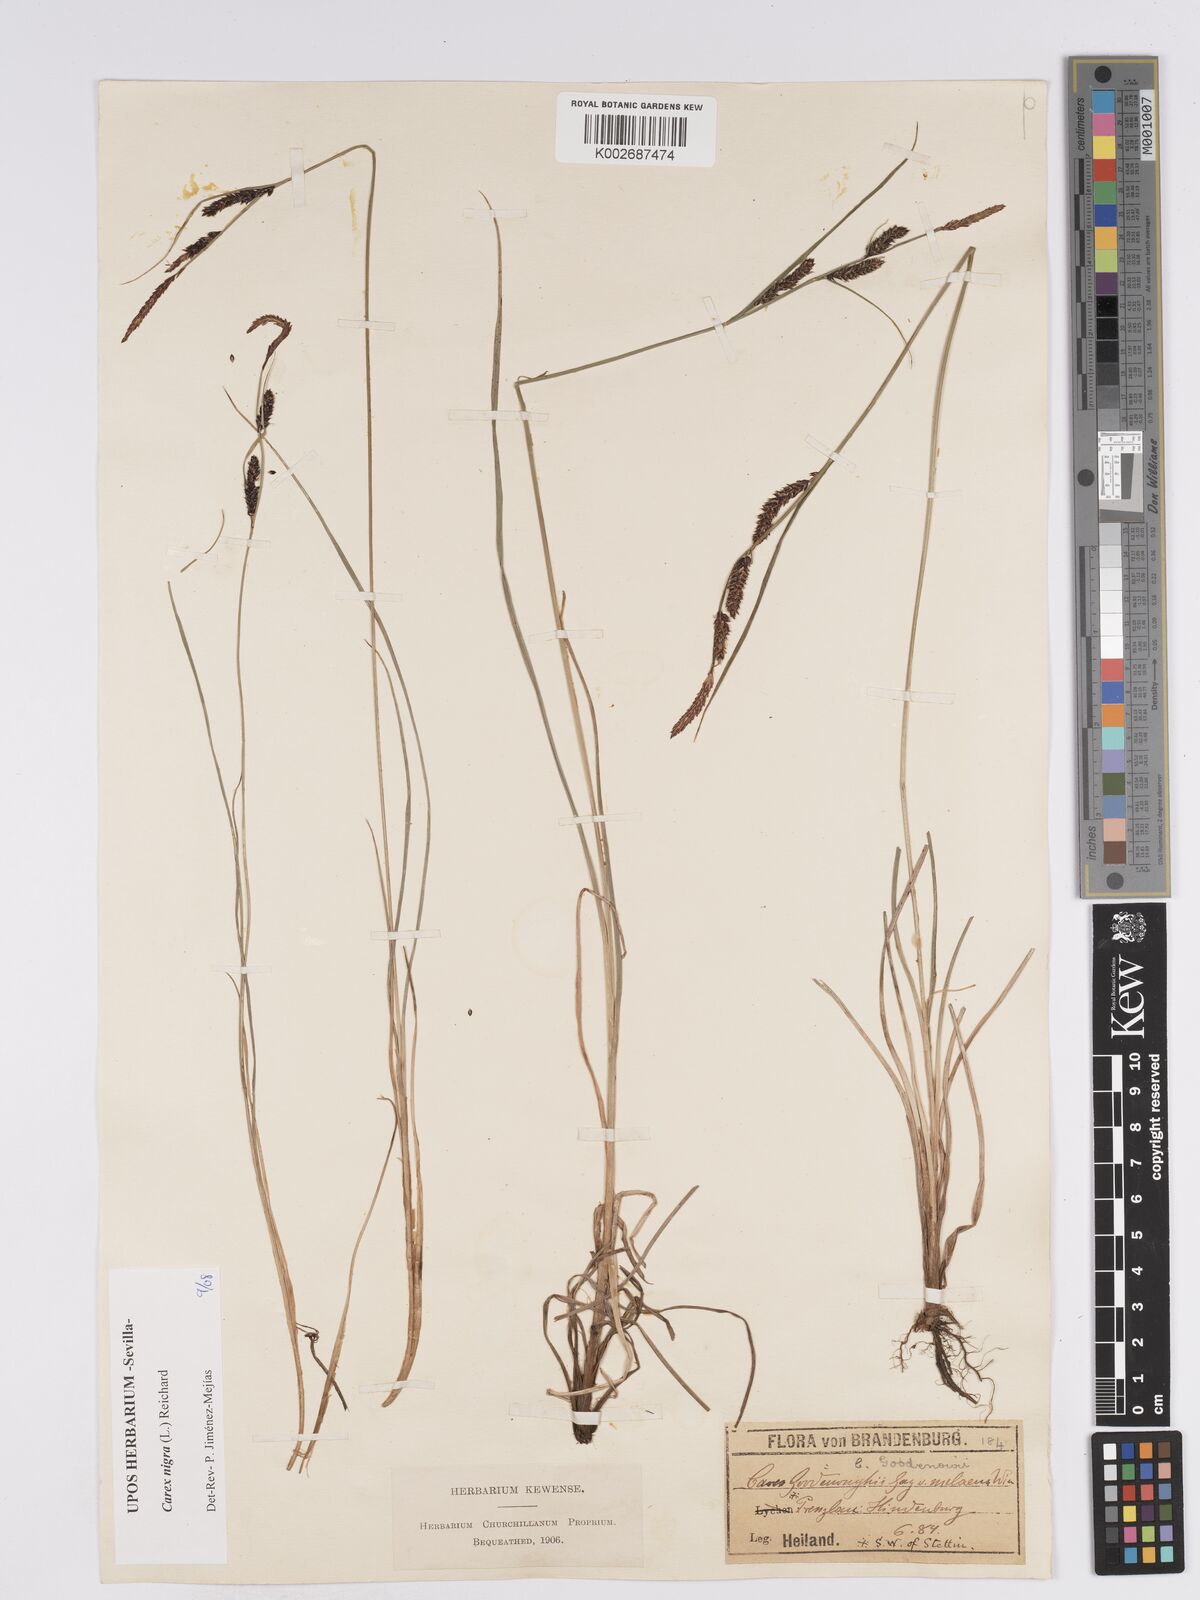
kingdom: Plantae
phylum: Tracheophyta
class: Liliopsida
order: Poales
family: Cyperaceae
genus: Carex
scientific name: Carex nigra
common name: Common sedge
